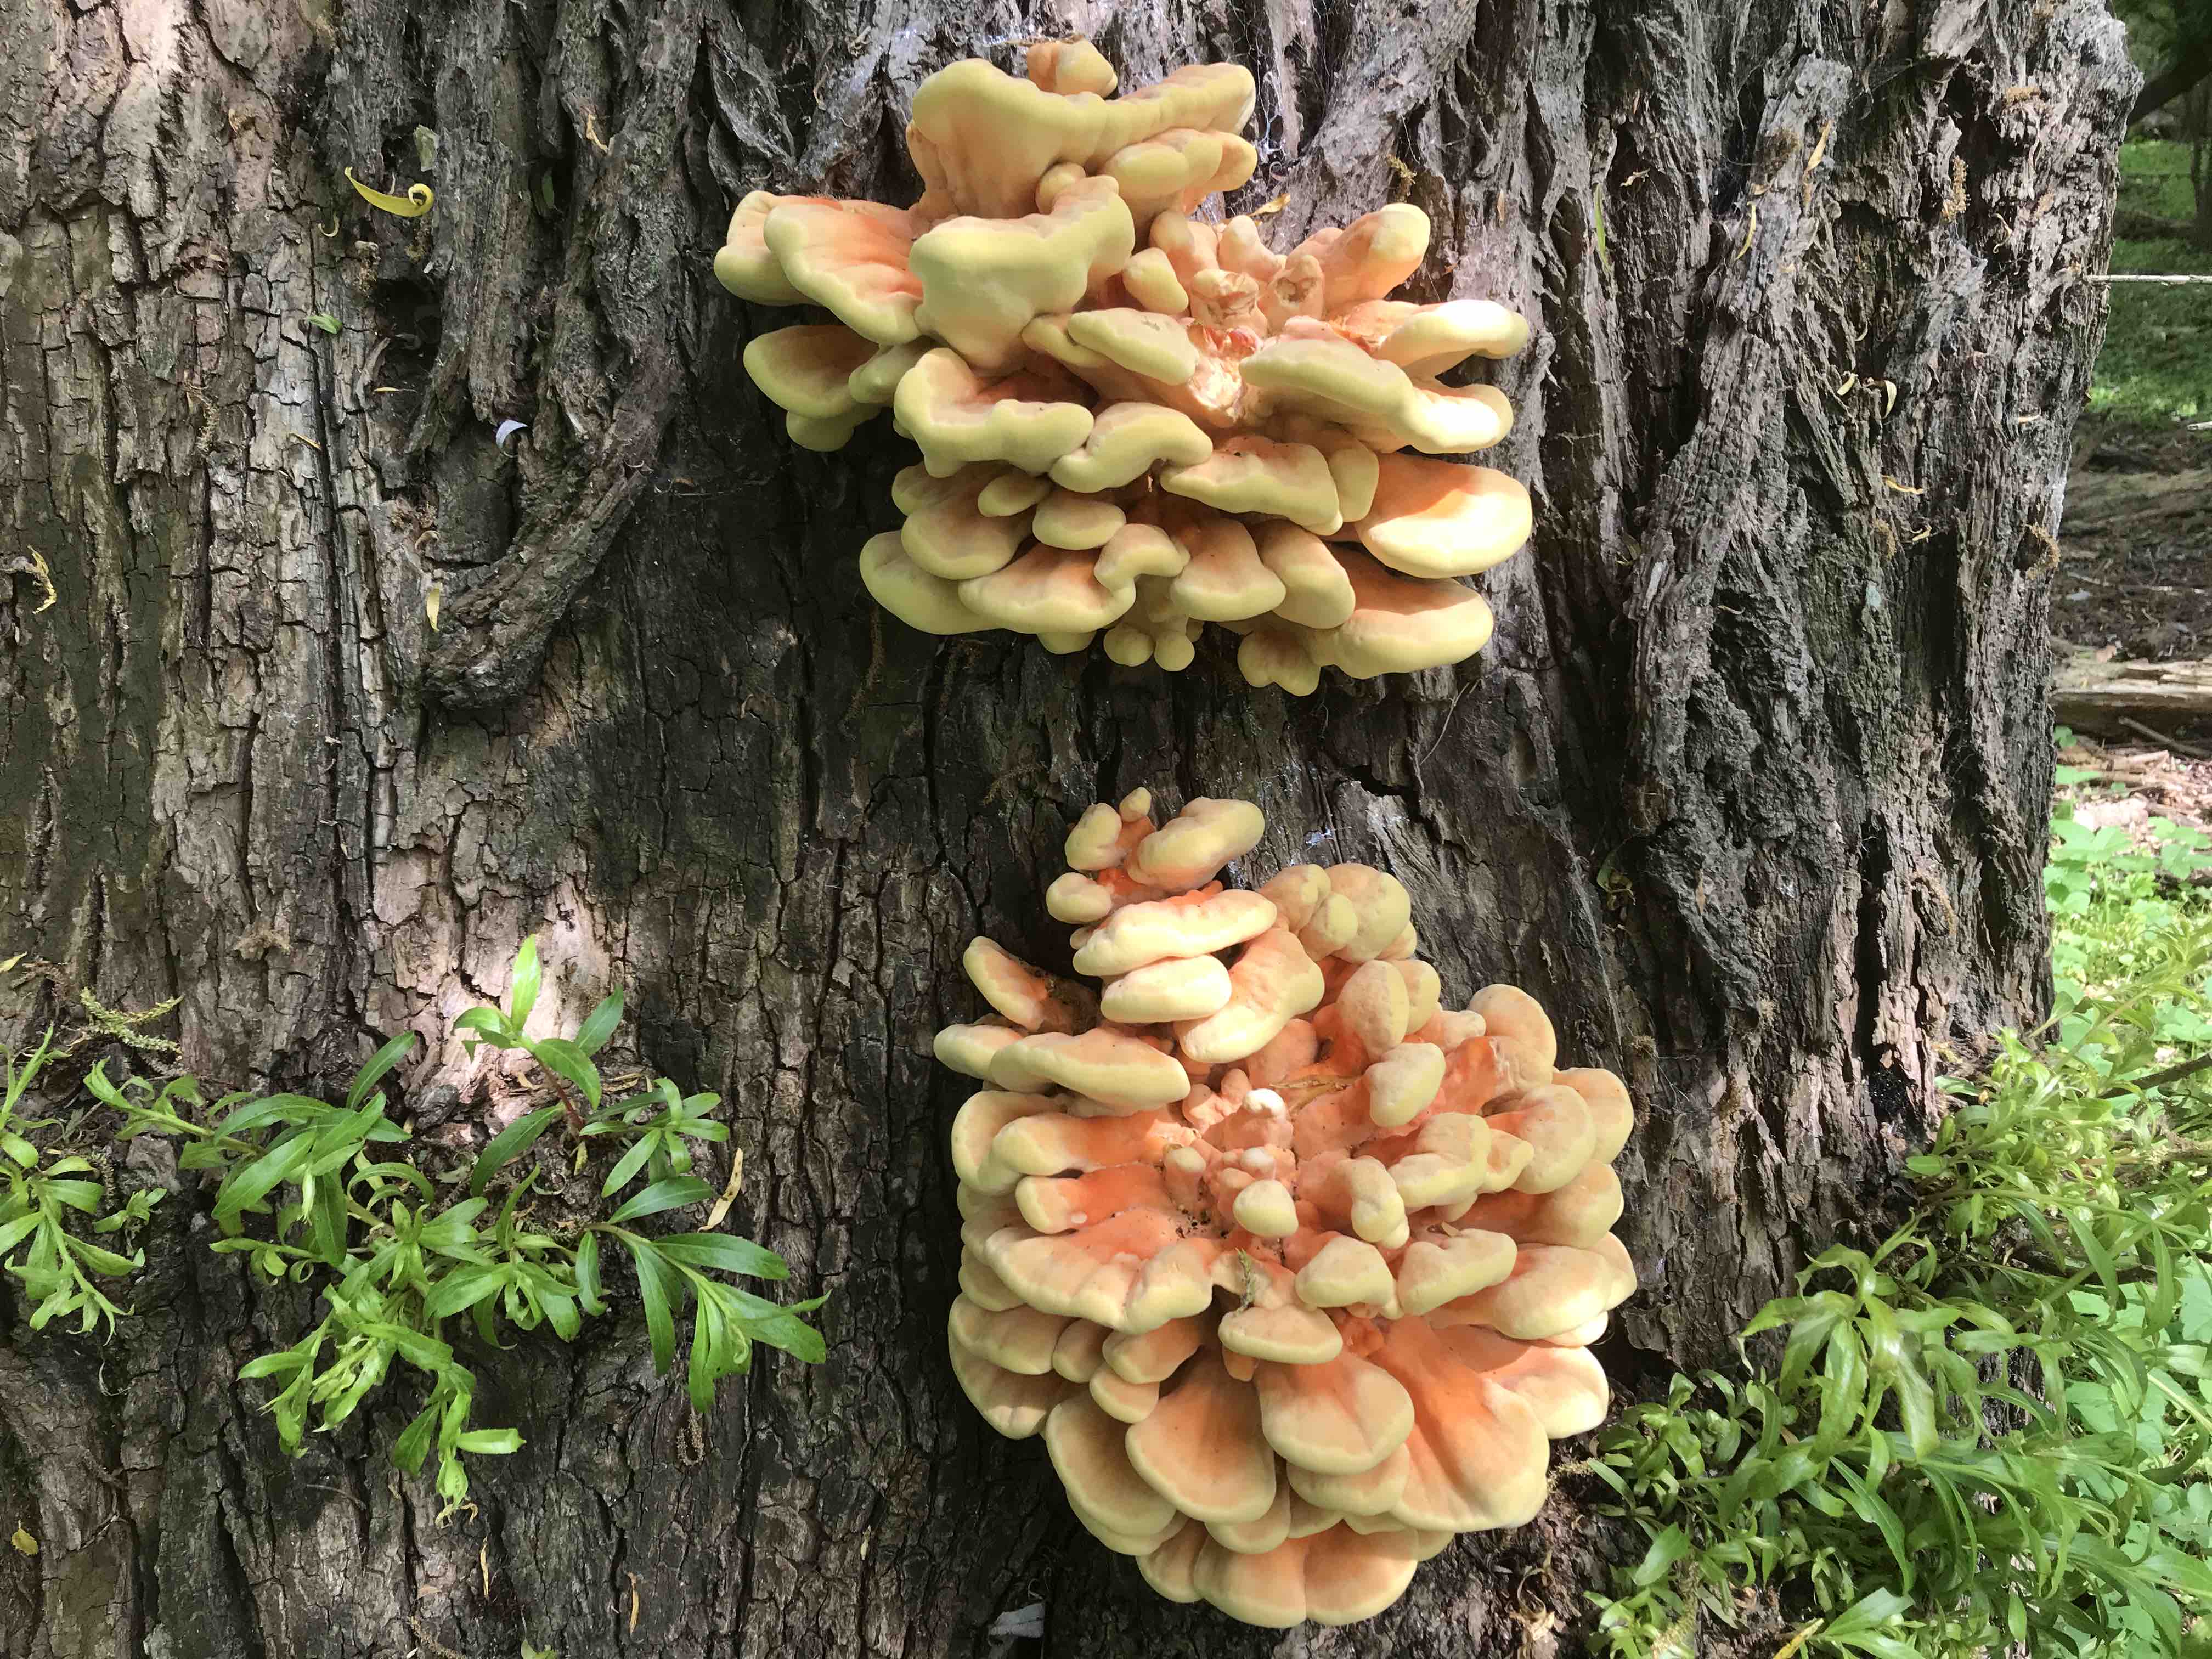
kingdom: Fungi
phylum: Basidiomycota
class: Agaricomycetes
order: Polyporales
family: Laetiporaceae
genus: Laetiporus
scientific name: Laetiporus sulphureus
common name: svovlporesvamp
